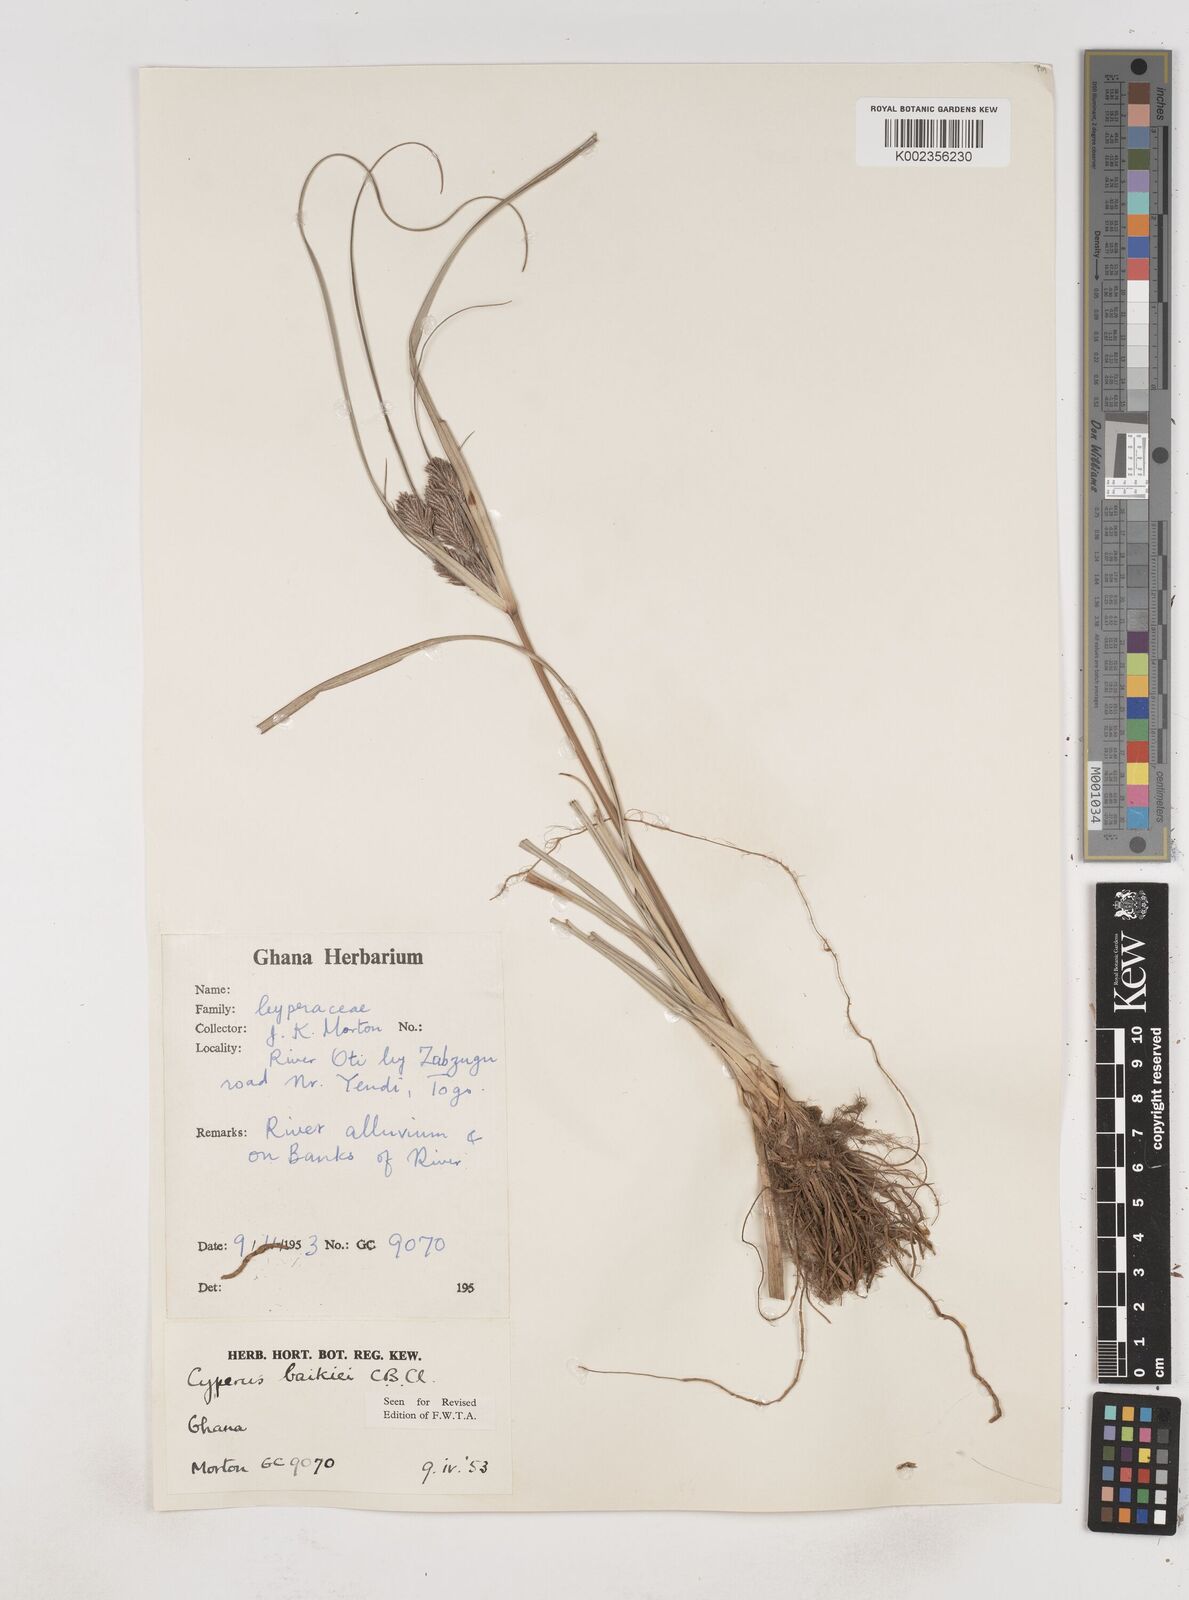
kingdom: Plantae
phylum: Tracheophyta
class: Liliopsida
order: Poales
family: Cyperaceae
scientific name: Cyperaceae
